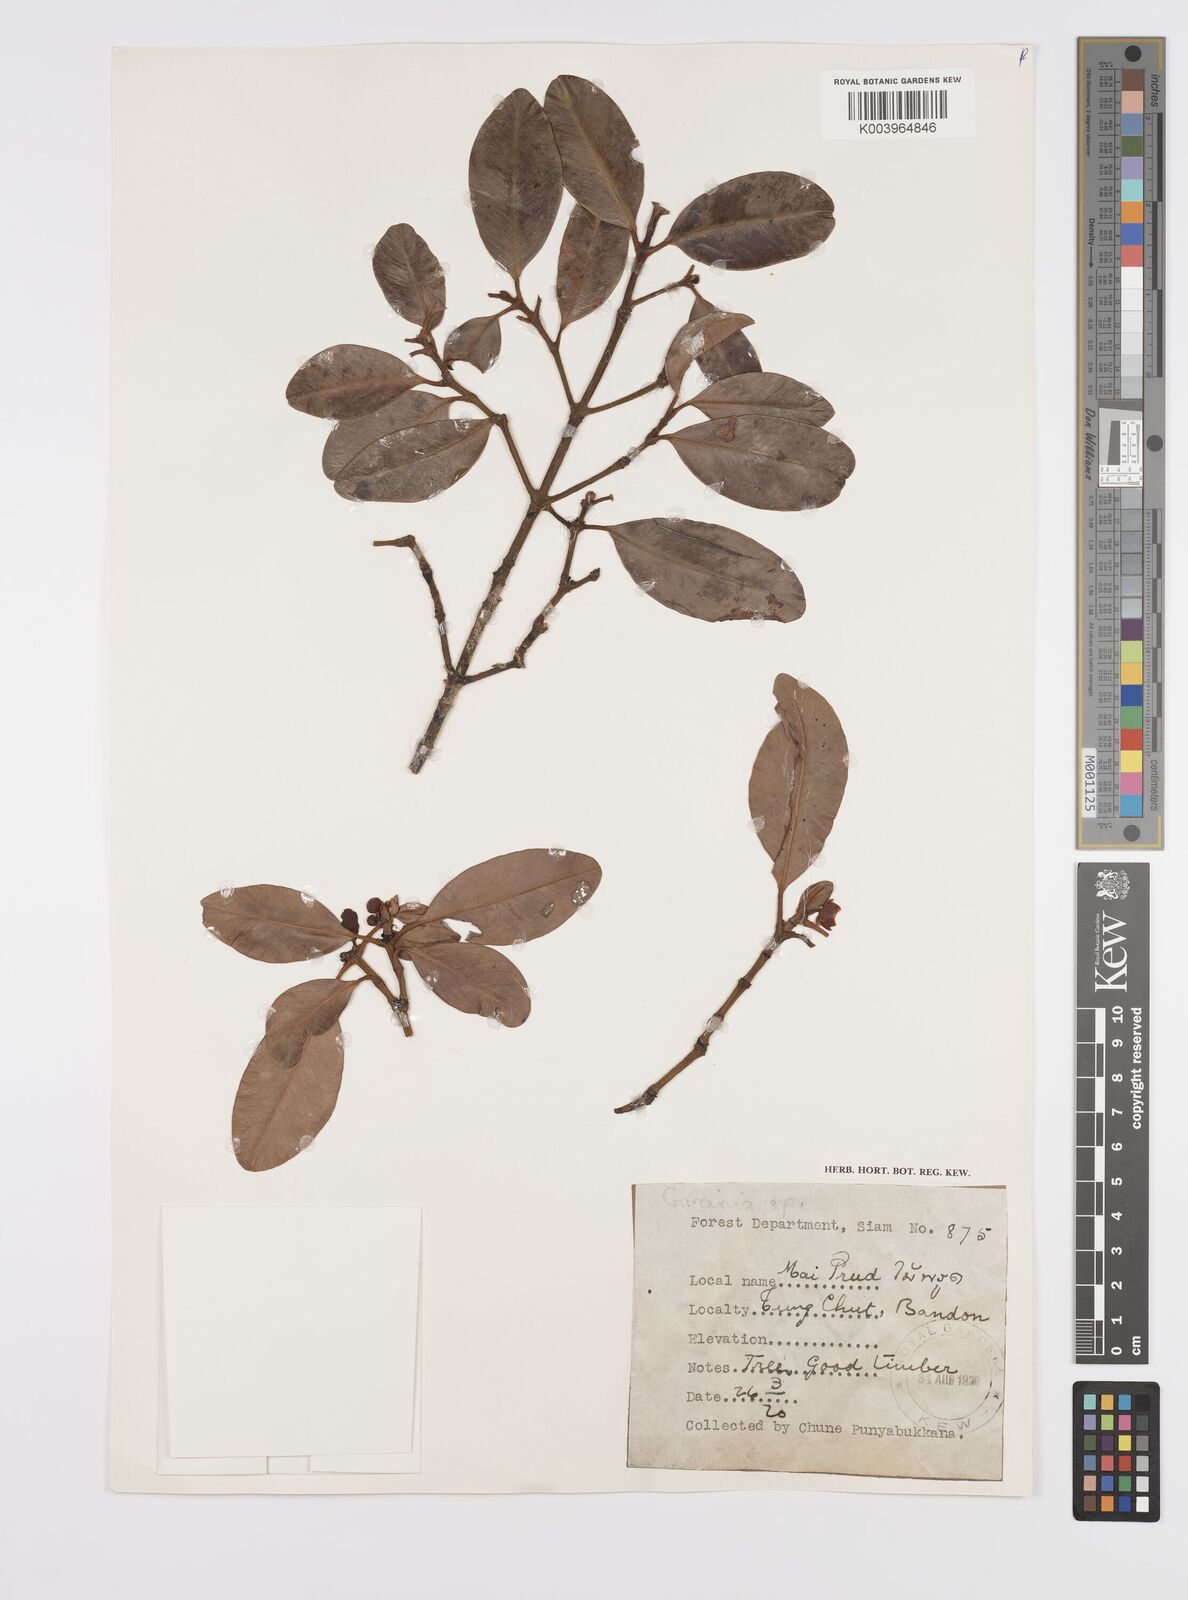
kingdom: Plantae
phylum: Tracheophyta
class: Magnoliopsida
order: Malpighiales
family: Clusiaceae
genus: Garcinia
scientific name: Garcinia
